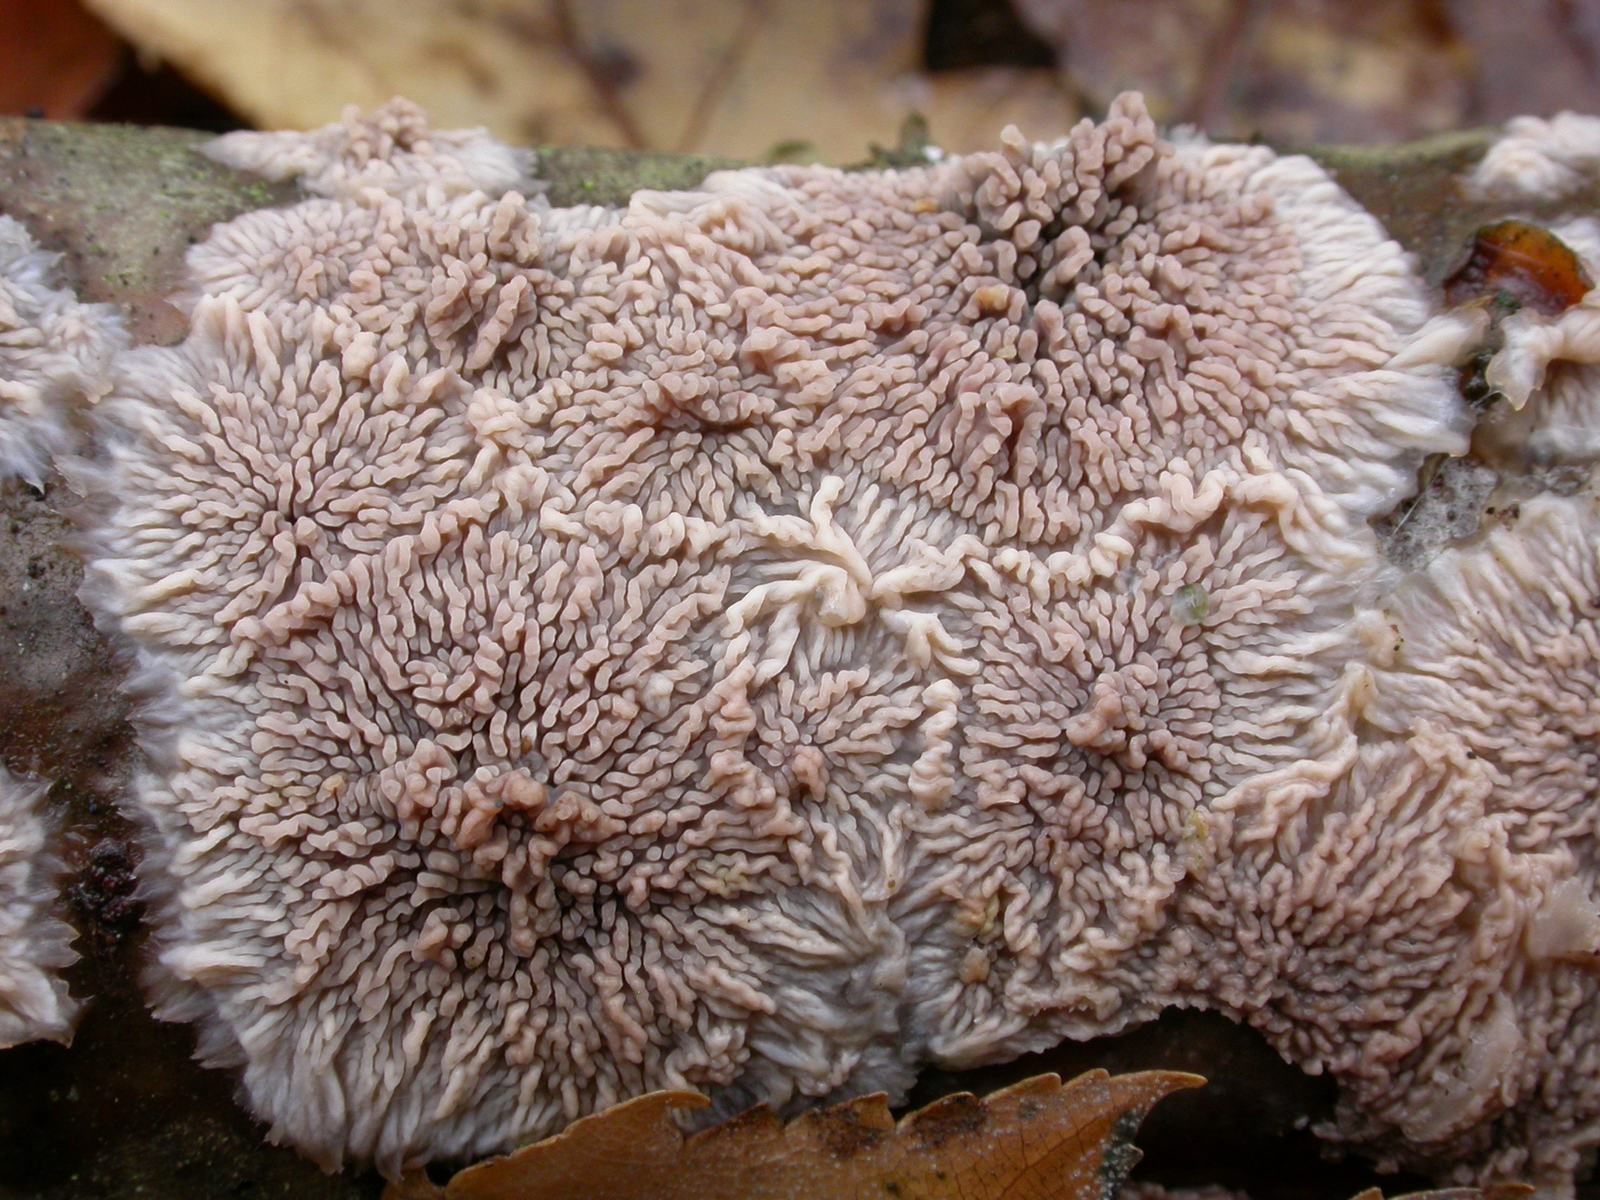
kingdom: Fungi
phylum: Basidiomycota
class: Agaricomycetes
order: Polyporales
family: Meruliaceae
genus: Phlebia
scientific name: Phlebia radiata
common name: stråle-åresvamp
